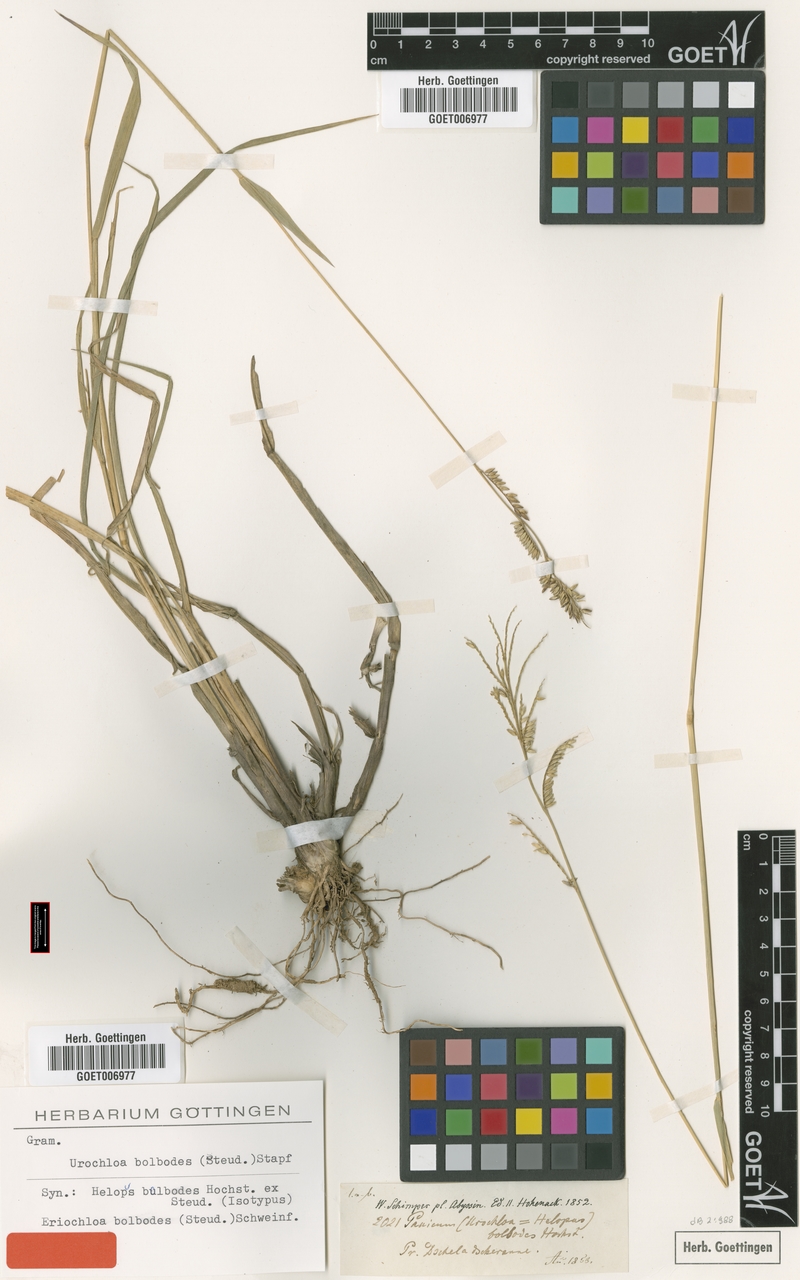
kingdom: Plantae
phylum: Tracheophyta
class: Liliopsida
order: Poales
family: Poaceae
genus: Urochloa
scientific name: Urochloa oligotricha
